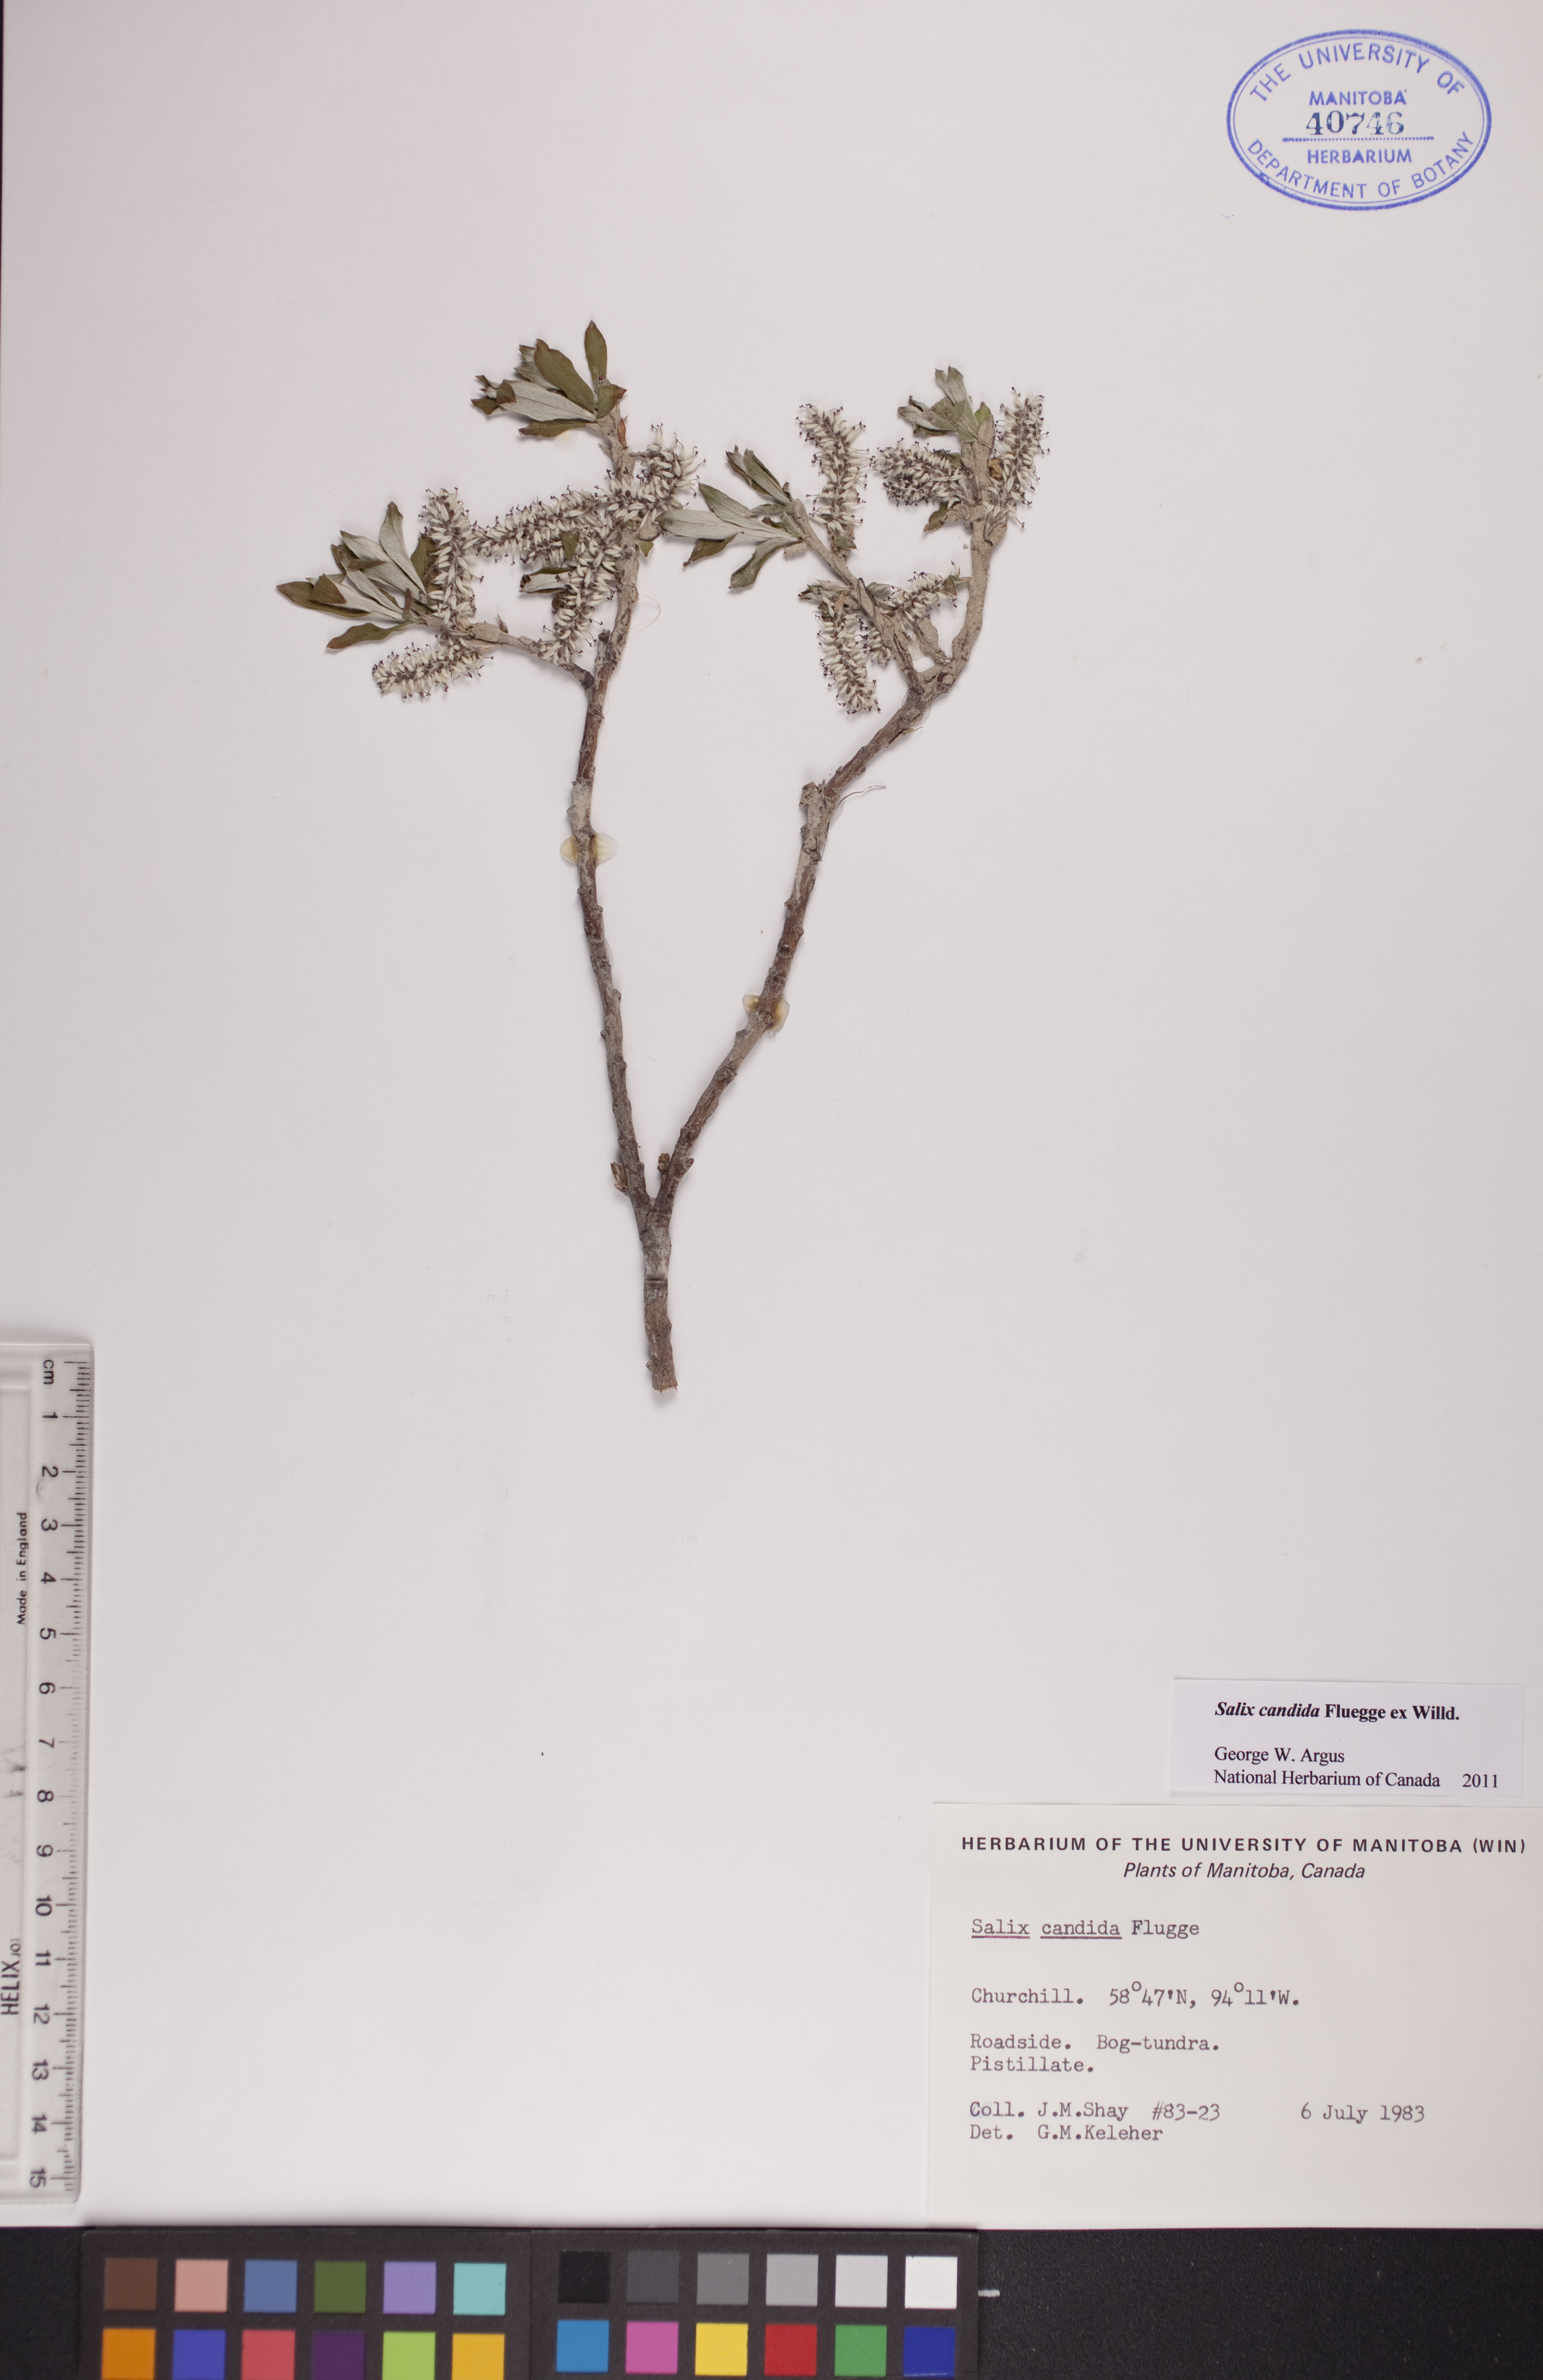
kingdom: Plantae
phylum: Tracheophyta
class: Magnoliopsida
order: Malpighiales
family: Salicaceae
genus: Salix
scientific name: Salix candida
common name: Hoary willow
